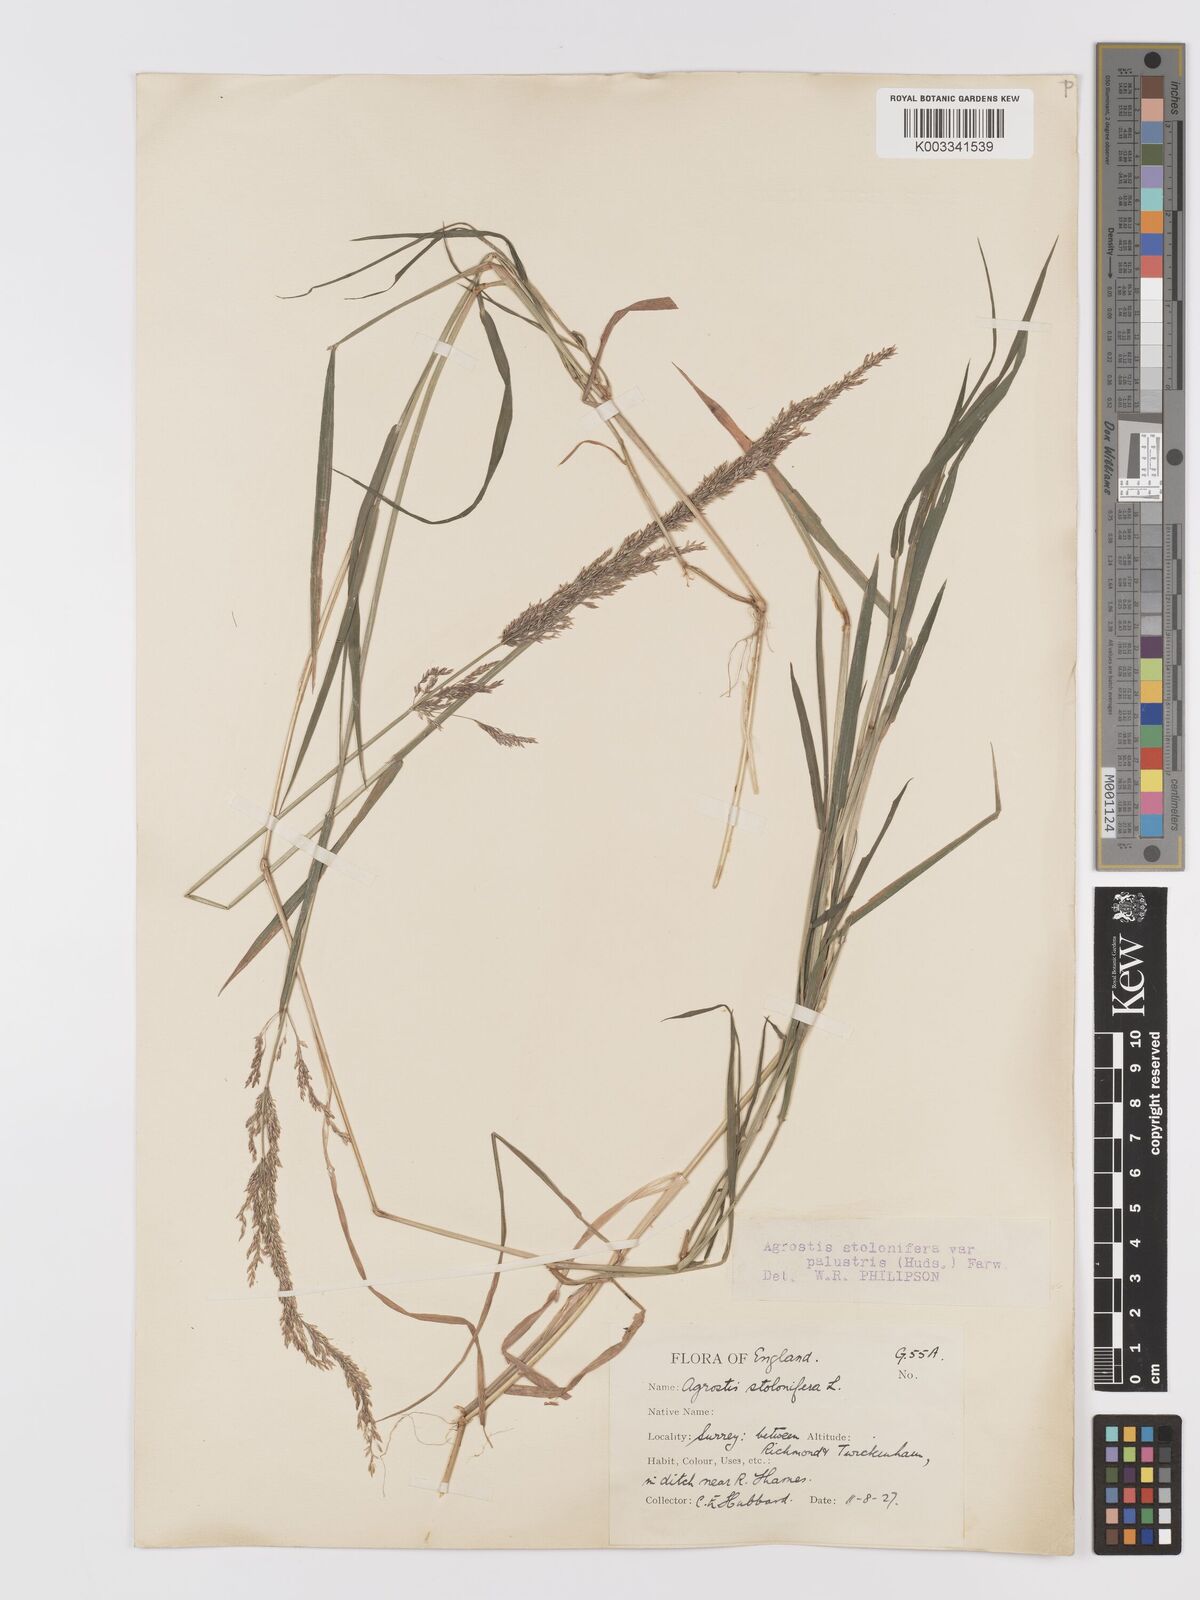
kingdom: Plantae
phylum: Tracheophyta
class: Liliopsida
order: Poales
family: Poaceae
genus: Agrostis
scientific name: Agrostis stolonifera
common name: Creeping bentgrass
